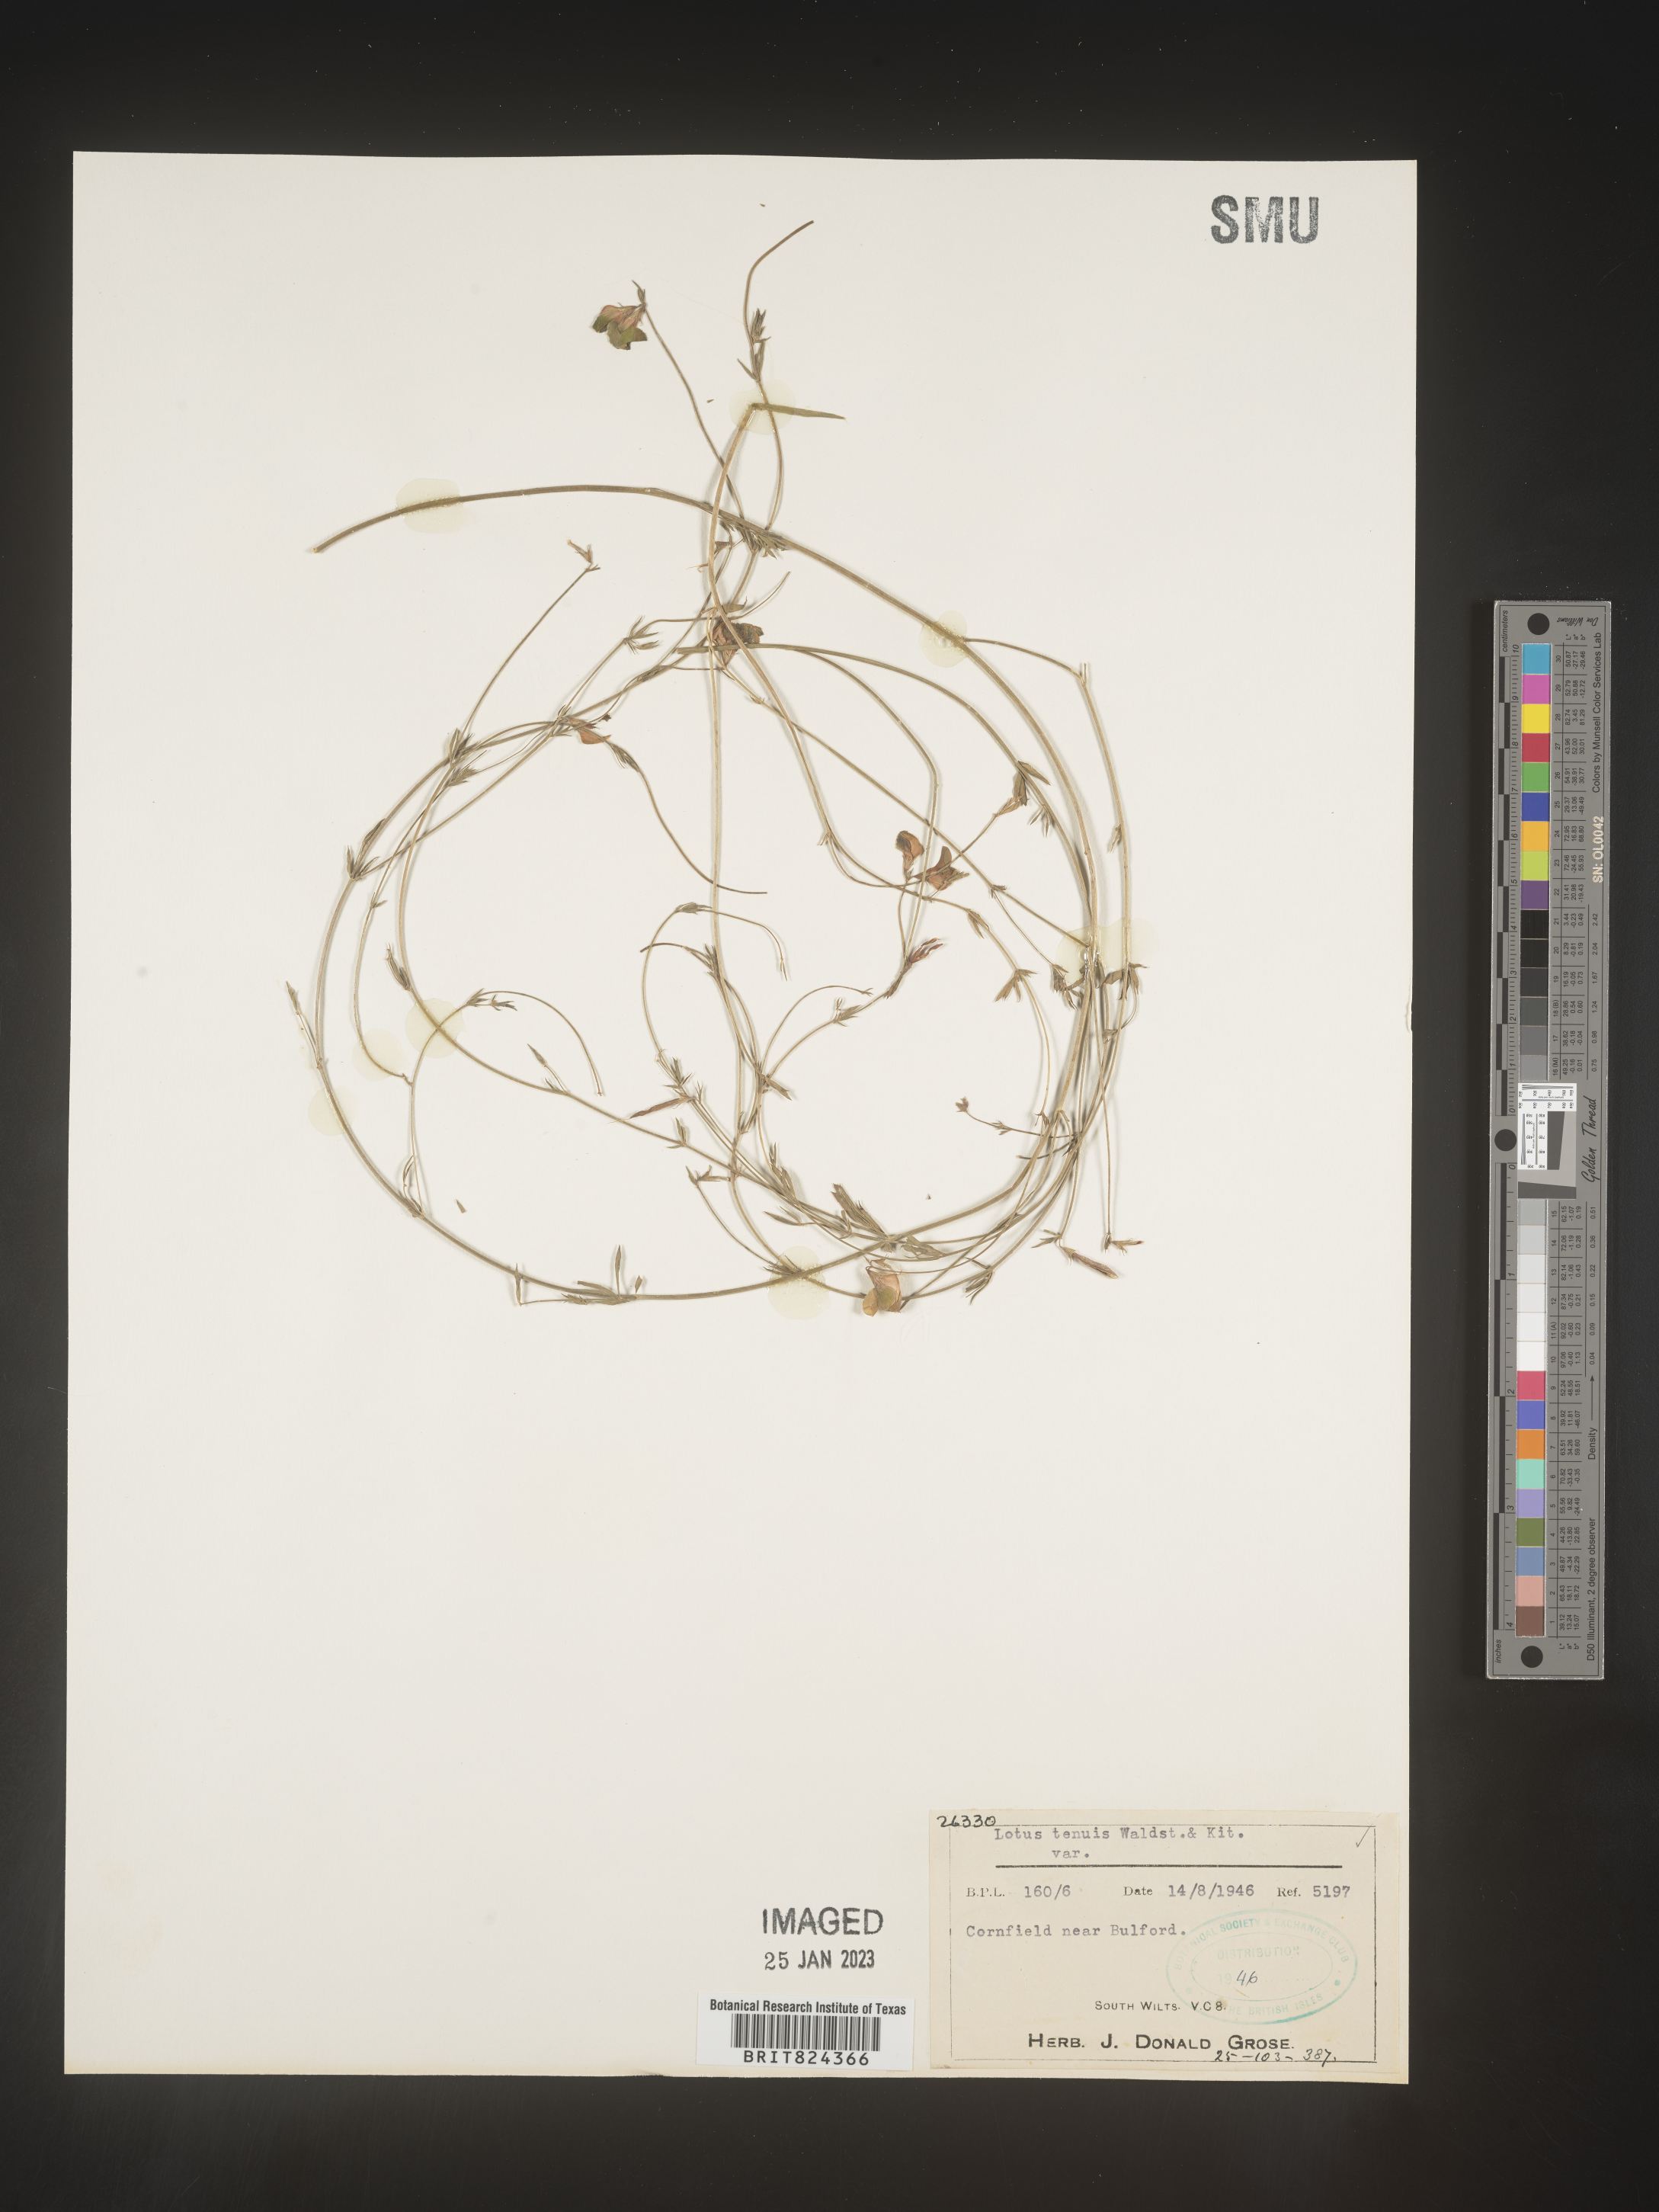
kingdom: Plantae
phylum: Tracheophyta
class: Magnoliopsida
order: Fabales
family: Fabaceae
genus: Lotus
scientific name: Lotus
